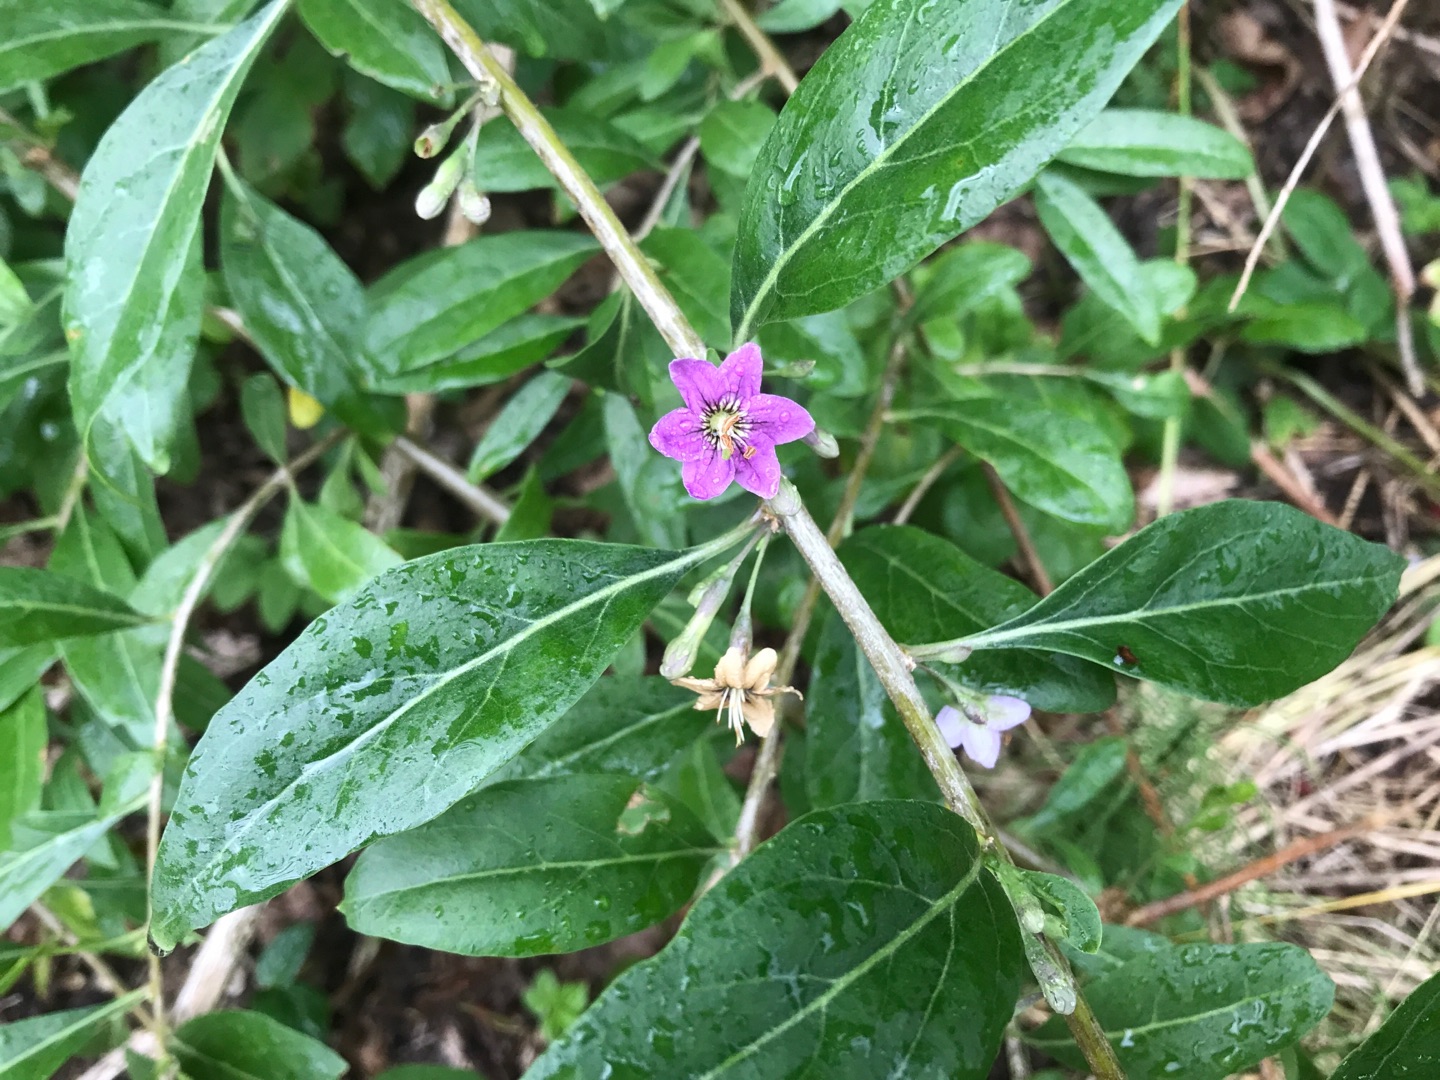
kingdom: Plantae
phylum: Tracheophyta
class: Magnoliopsida
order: Solanales
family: Solanaceae
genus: Lycium
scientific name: Lycium barbarum
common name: Bukketorn
